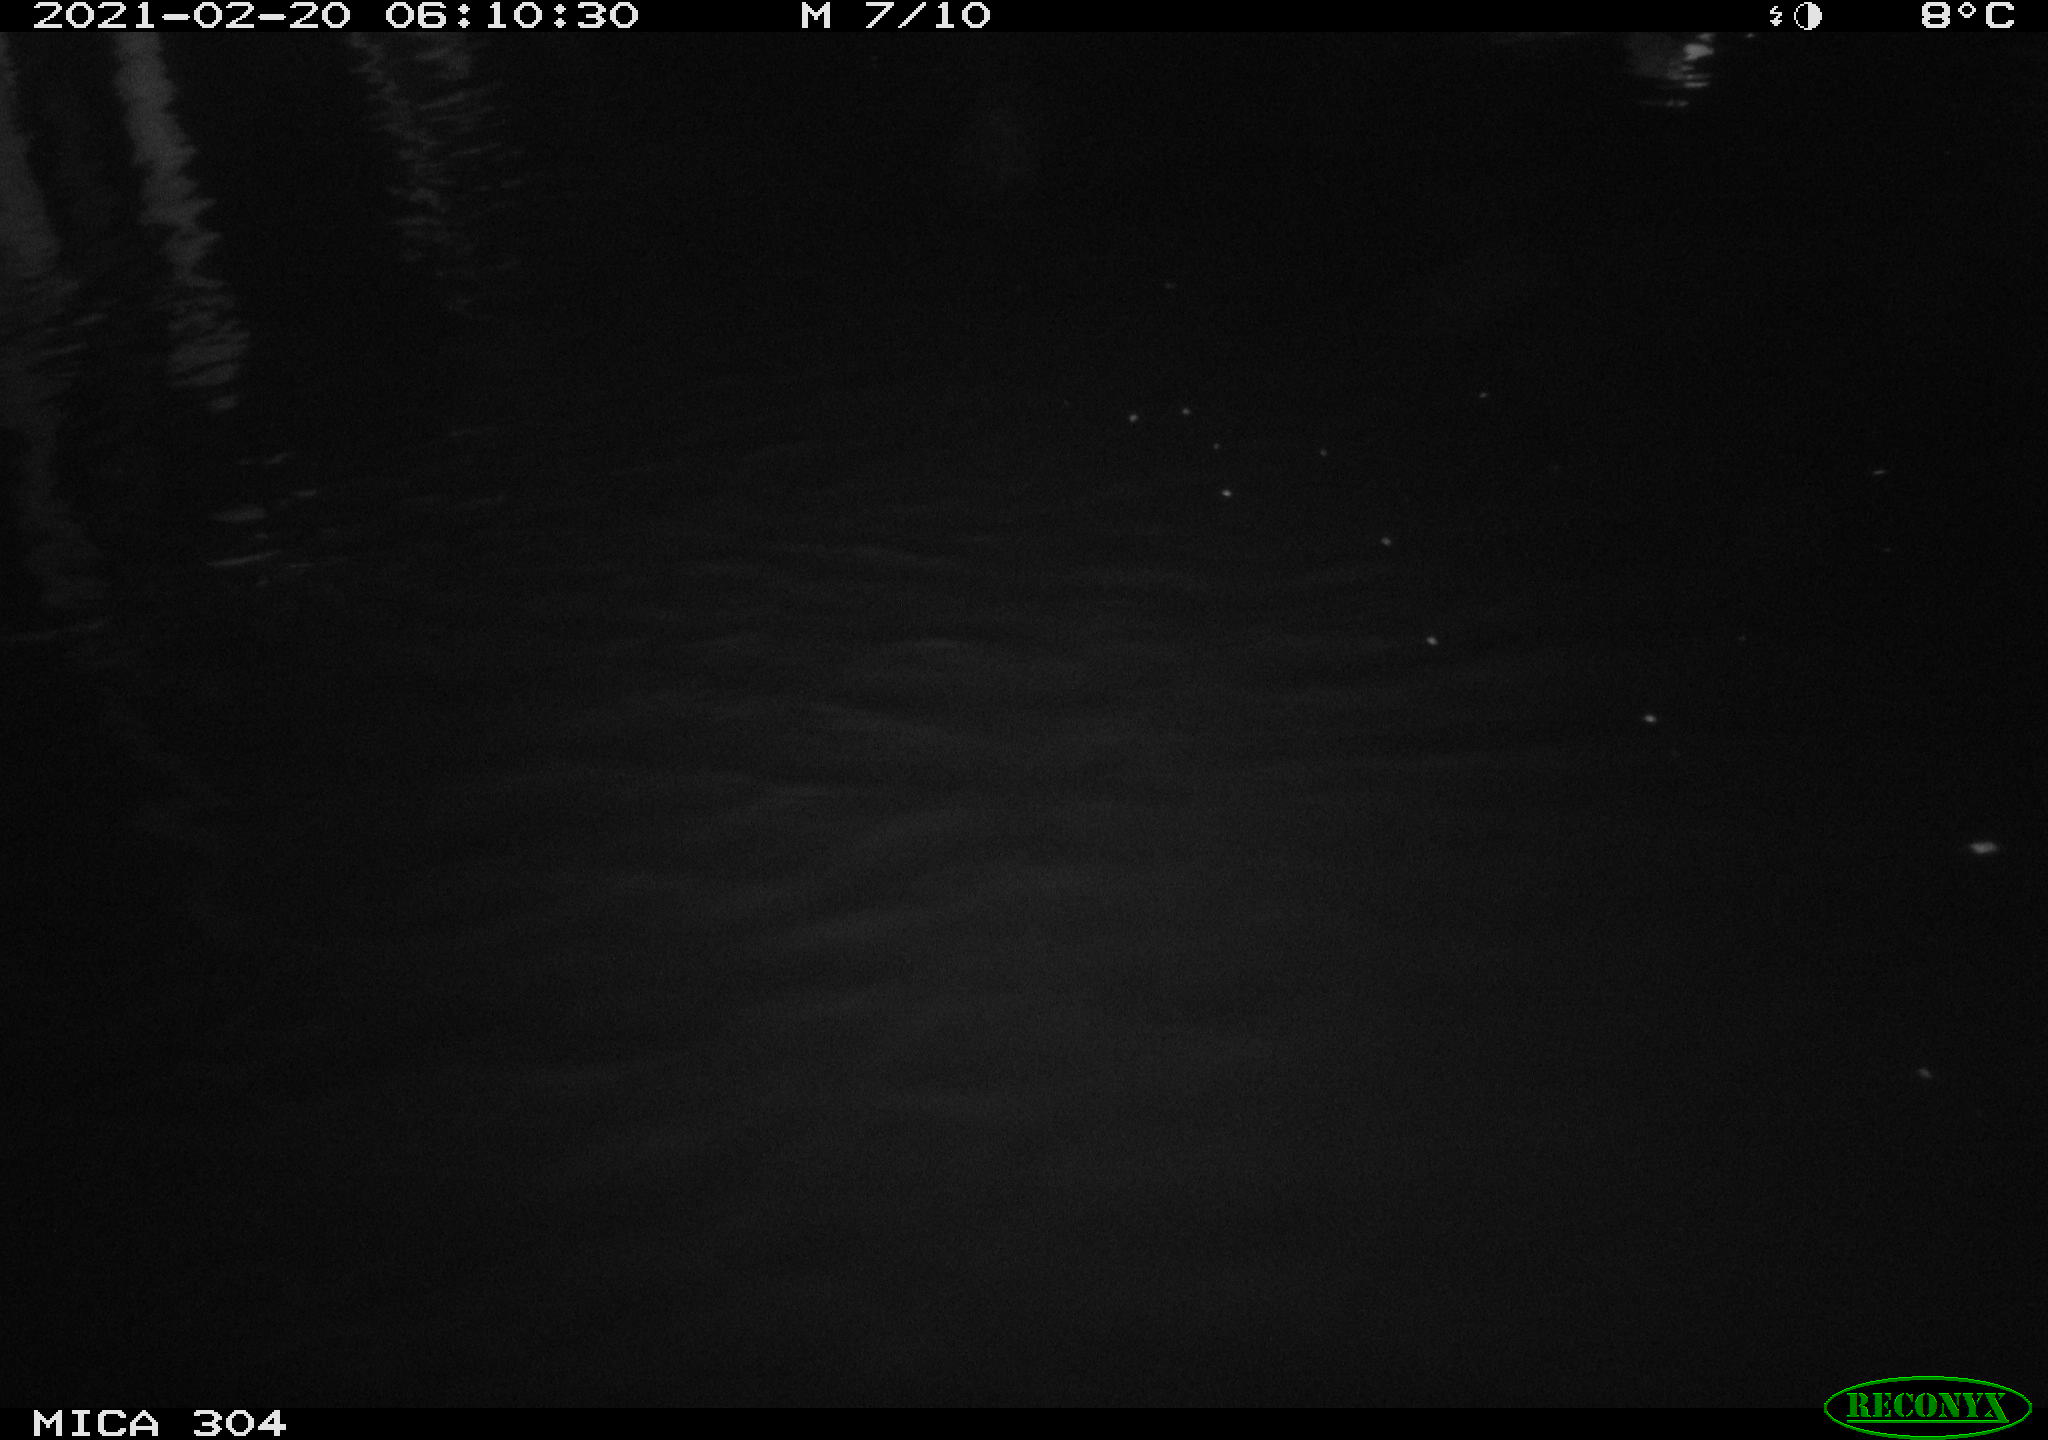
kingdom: Animalia
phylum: Chordata
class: Aves
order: Gruiformes
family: Rallidae
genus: Fulica
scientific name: Fulica atra
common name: Eurasian coot
